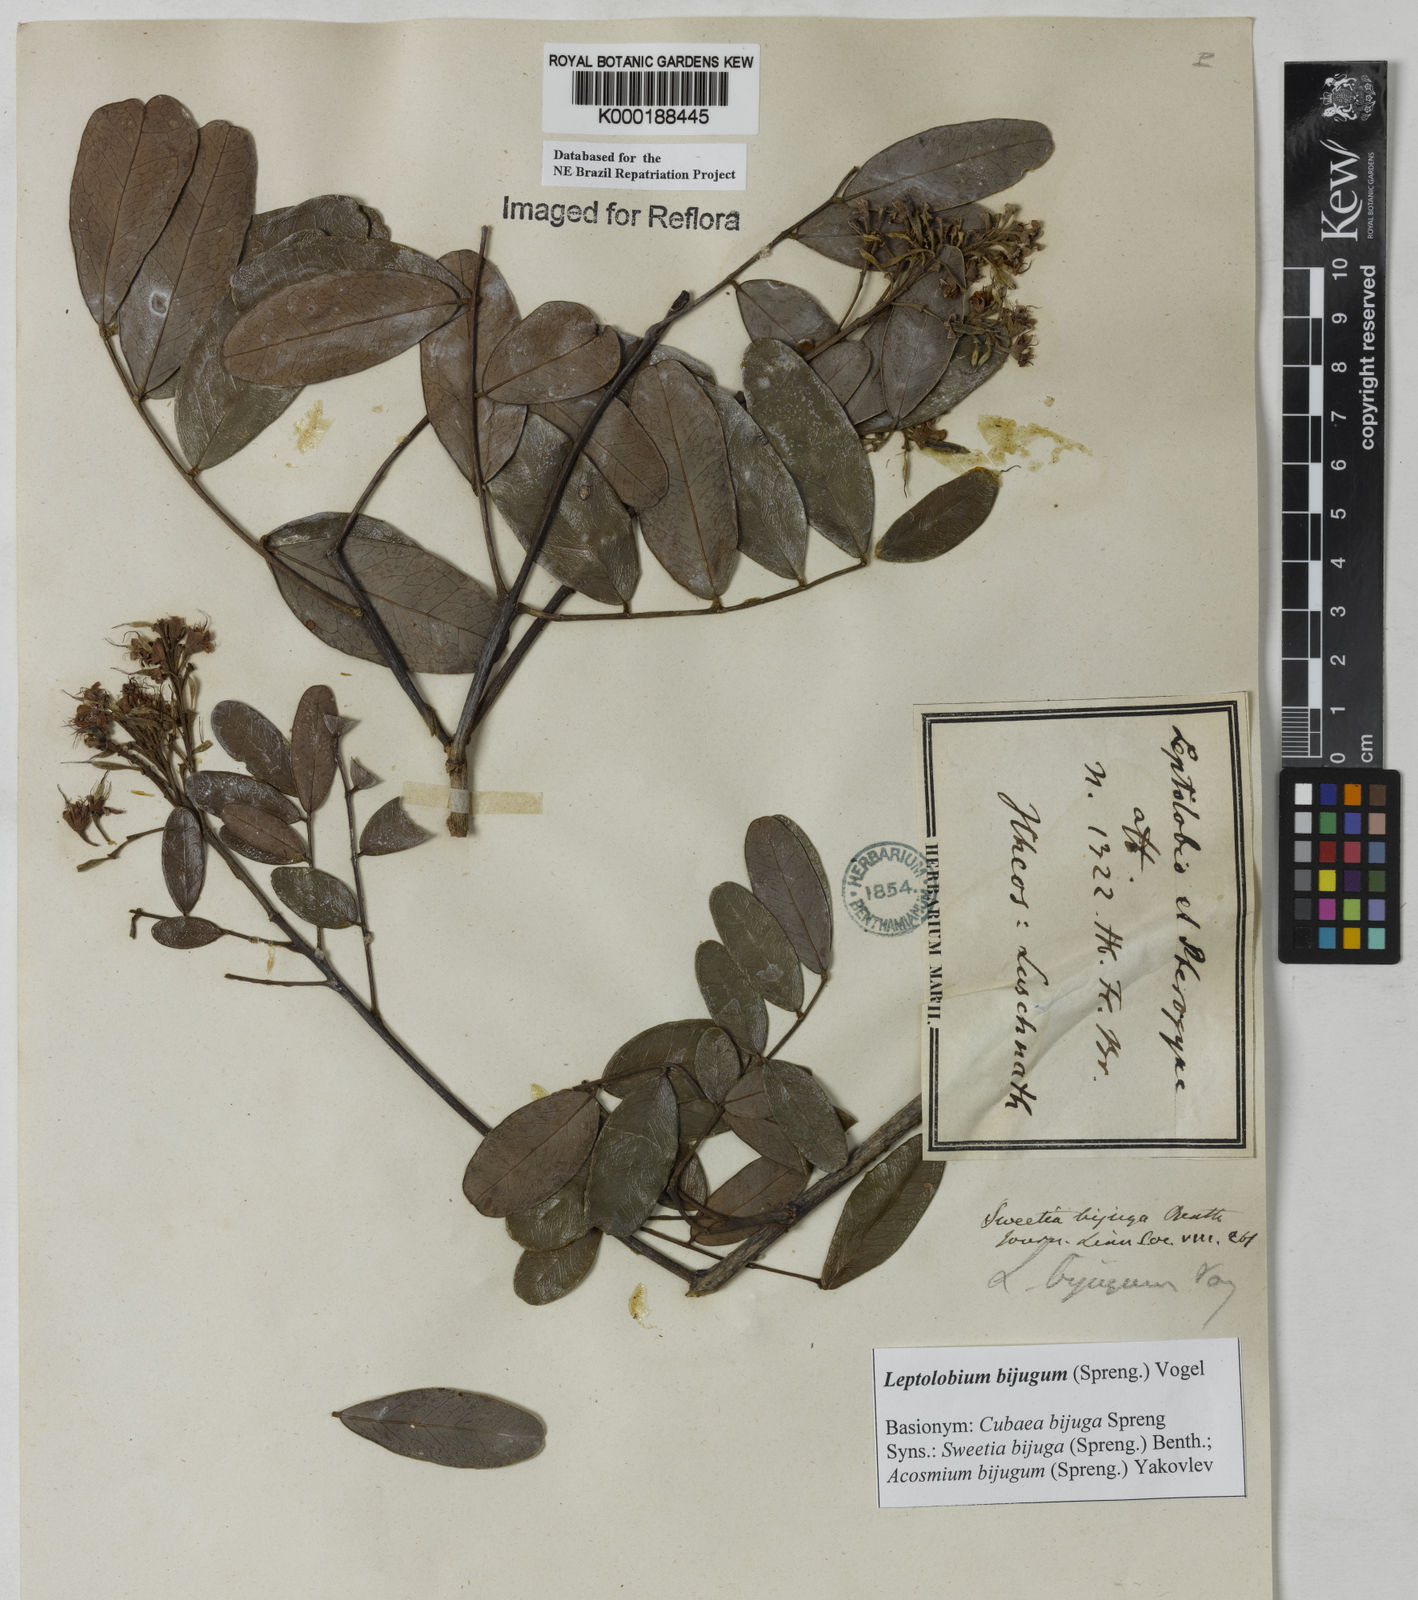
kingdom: Plantae
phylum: Tracheophyta
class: Magnoliopsida
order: Fabales
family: Fabaceae
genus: Leptolobium
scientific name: Leptolobium bijugum
